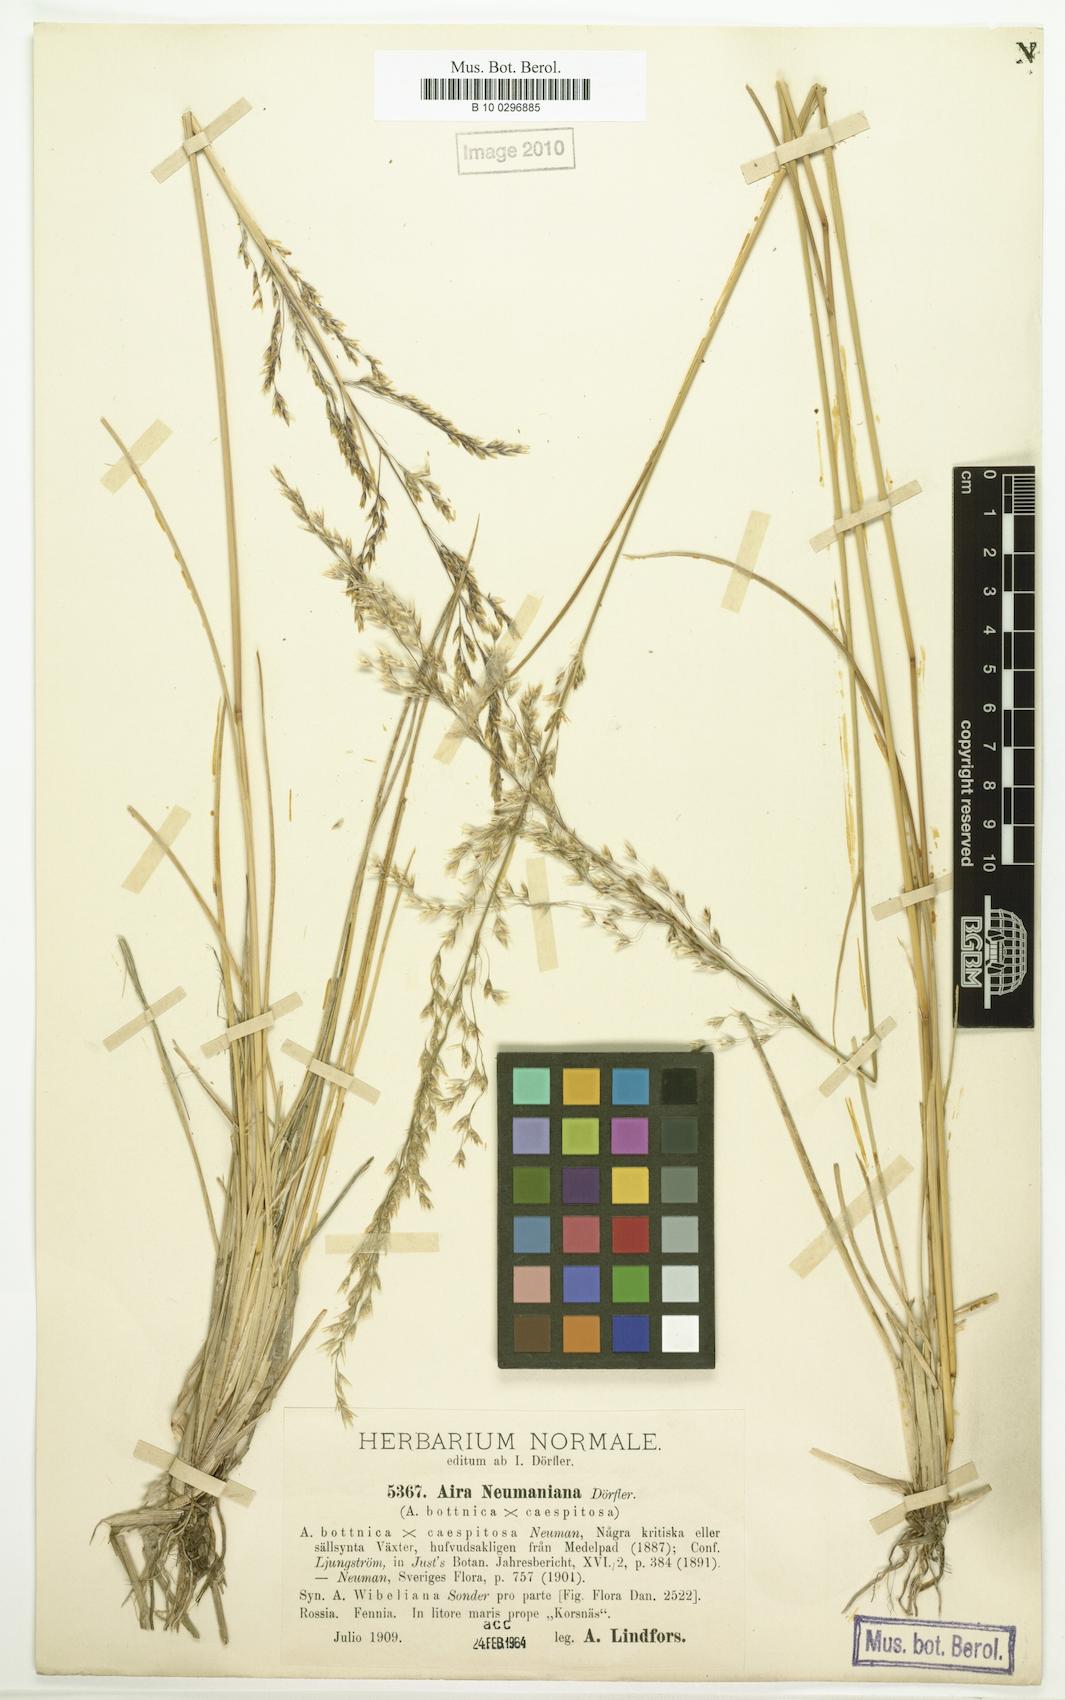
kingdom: Plantae
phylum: Tracheophyta
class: Liliopsida
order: Poales
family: Poaceae
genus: Deschampsia
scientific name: Deschampsia cespitosa
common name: Tufted hair-grass
